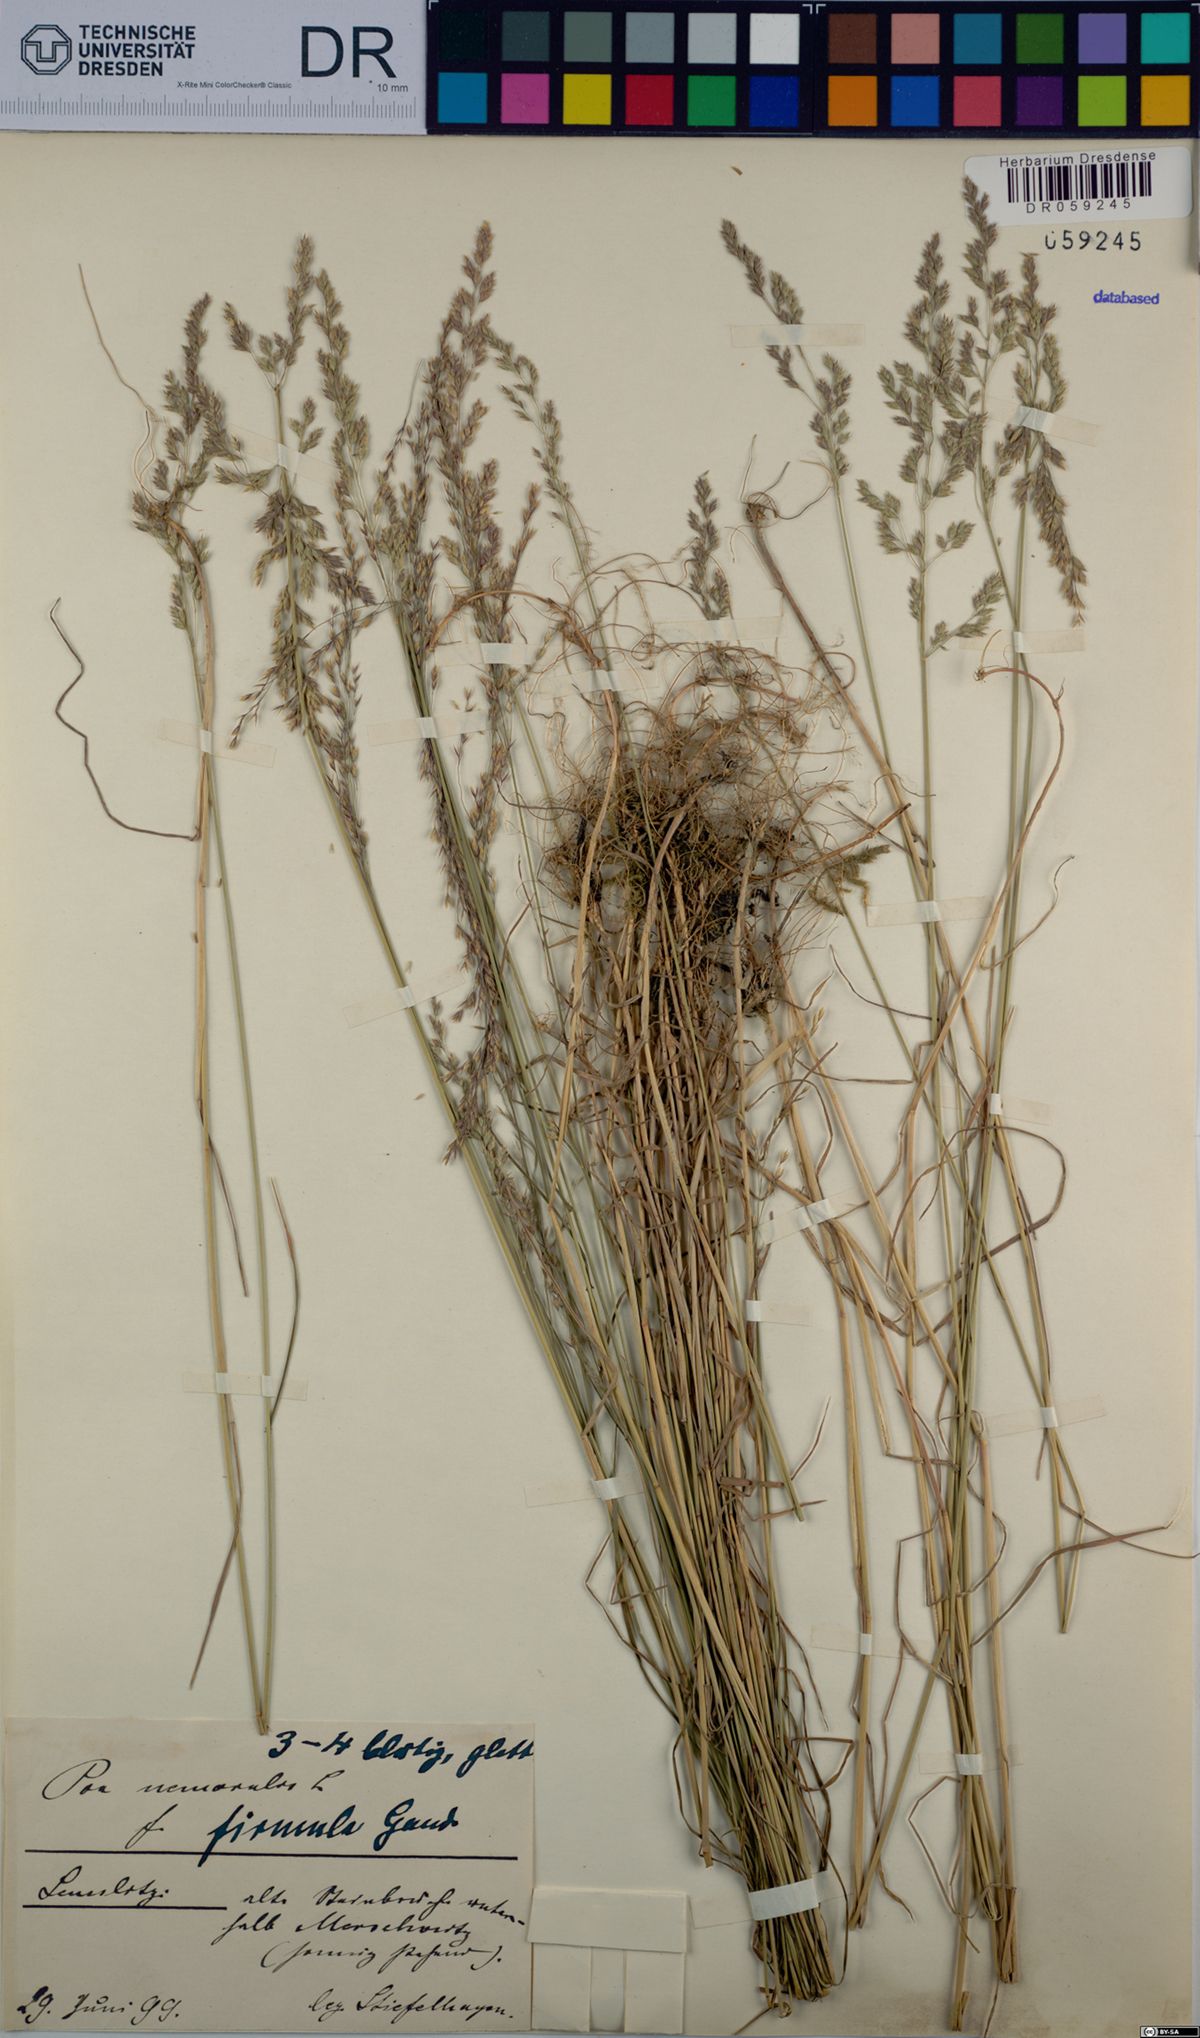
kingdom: Plantae
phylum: Tracheophyta
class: Liliopsida
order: Poales
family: Poaceae
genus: Poa
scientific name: Poa nemoralis
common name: Wood bluegrass
